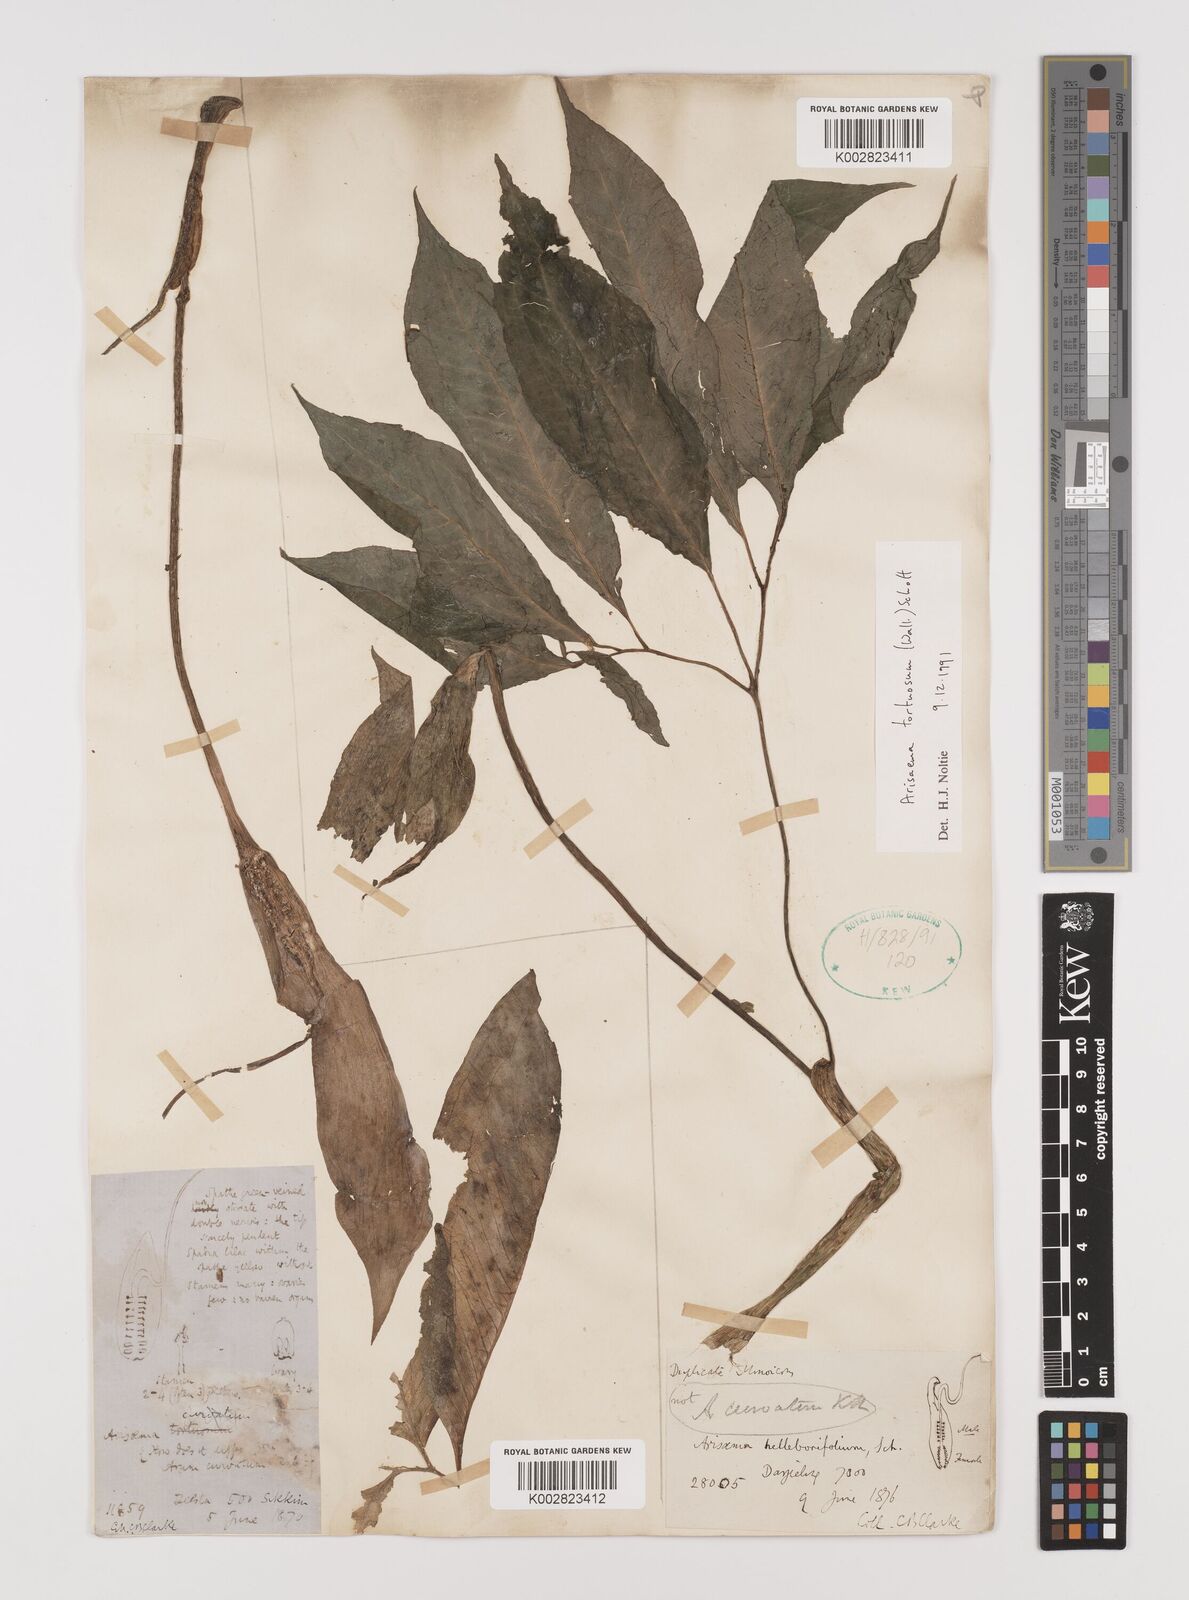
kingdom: Plantae
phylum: Tracheophyta
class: Liliopsida
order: Alismatales
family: Araceae
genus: Arisaema
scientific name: Arisaema tortuosum
